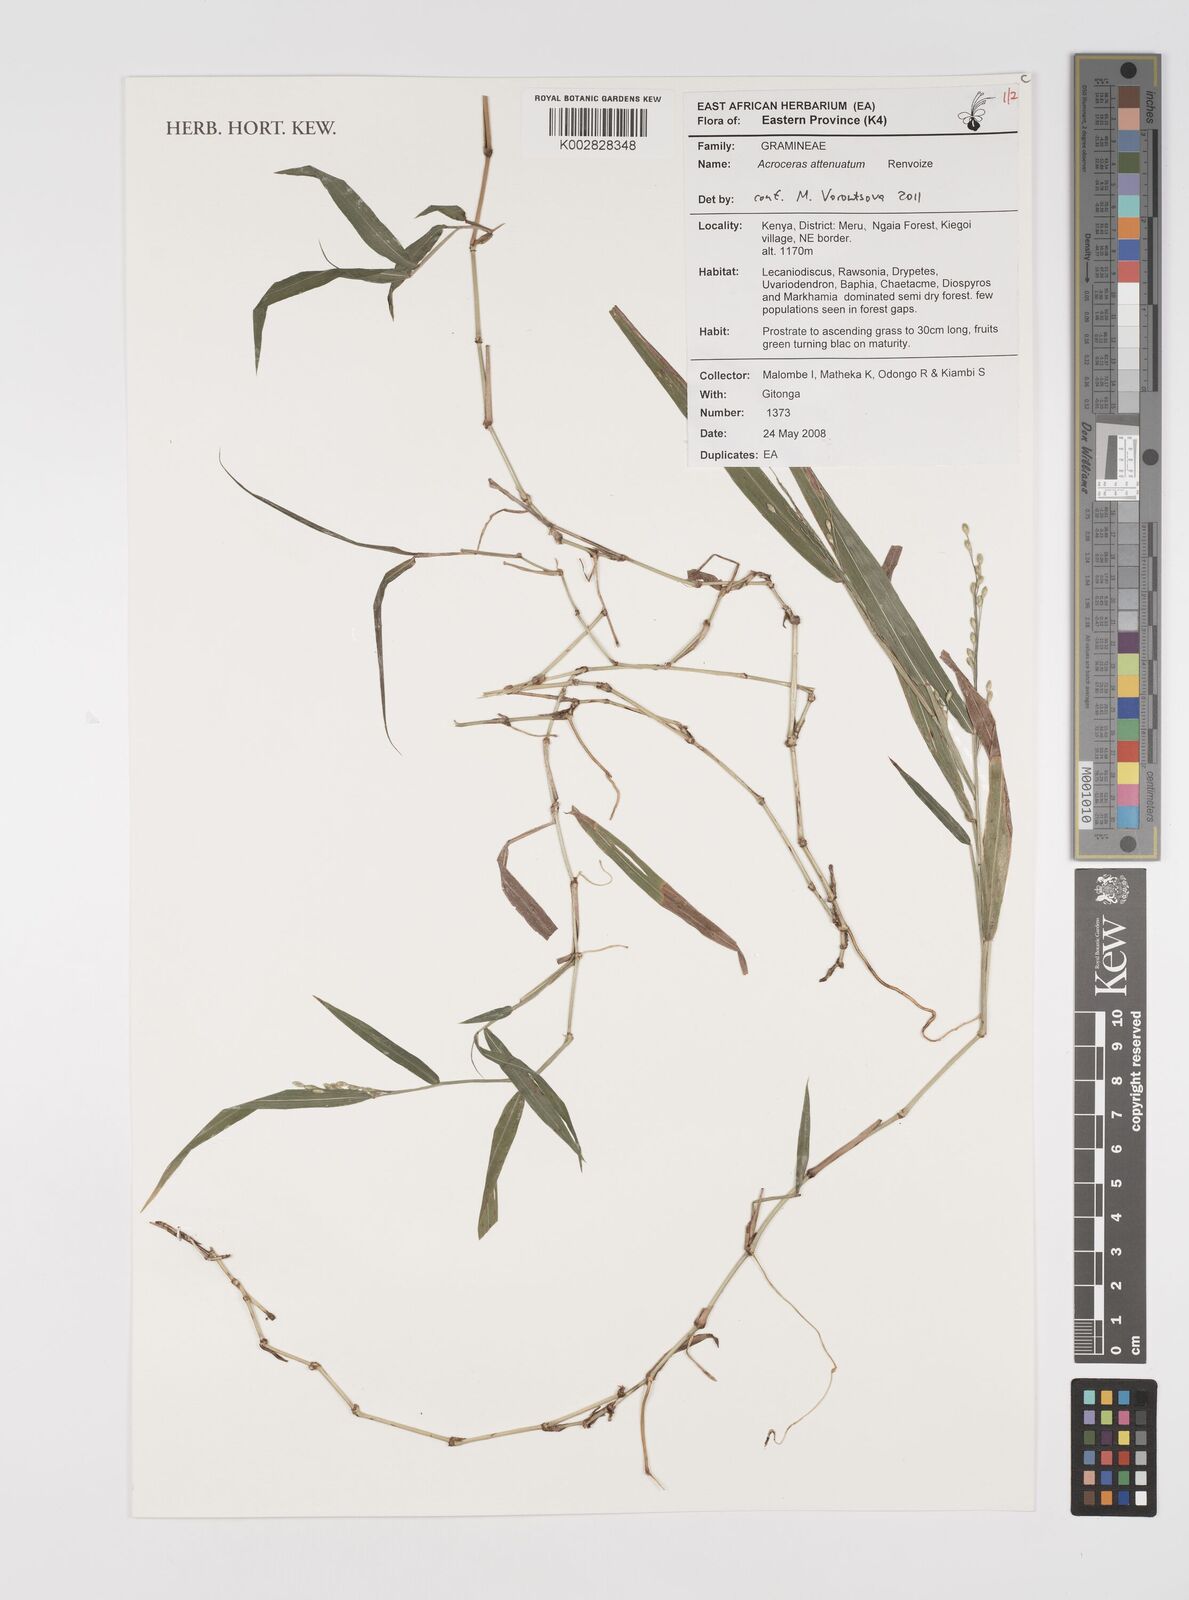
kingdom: Plantae
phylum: Tracheophyta
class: Liliopsida
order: Poales
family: Poaceae
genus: Acroceras
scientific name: Acroceras attenuatum
